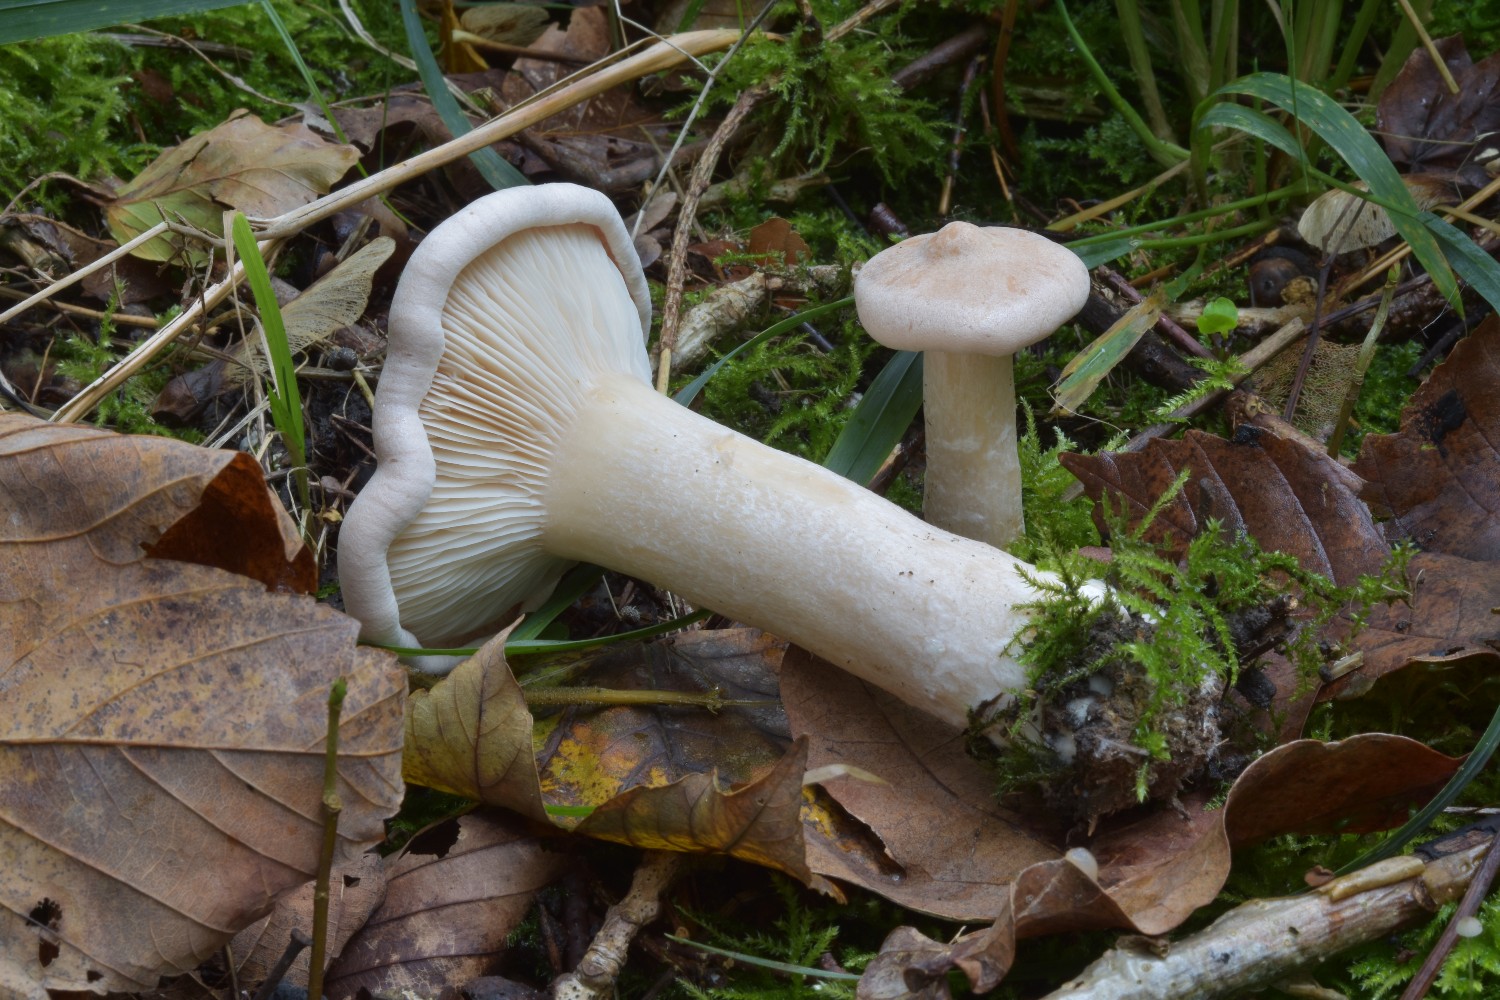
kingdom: Fungi
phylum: Basidiomycota
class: Agaricomycetes
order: Agaricales
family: Tricholomataceae
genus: Infundibulicybe
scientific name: Infundibulicybe geotropa
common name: stor tragthat
